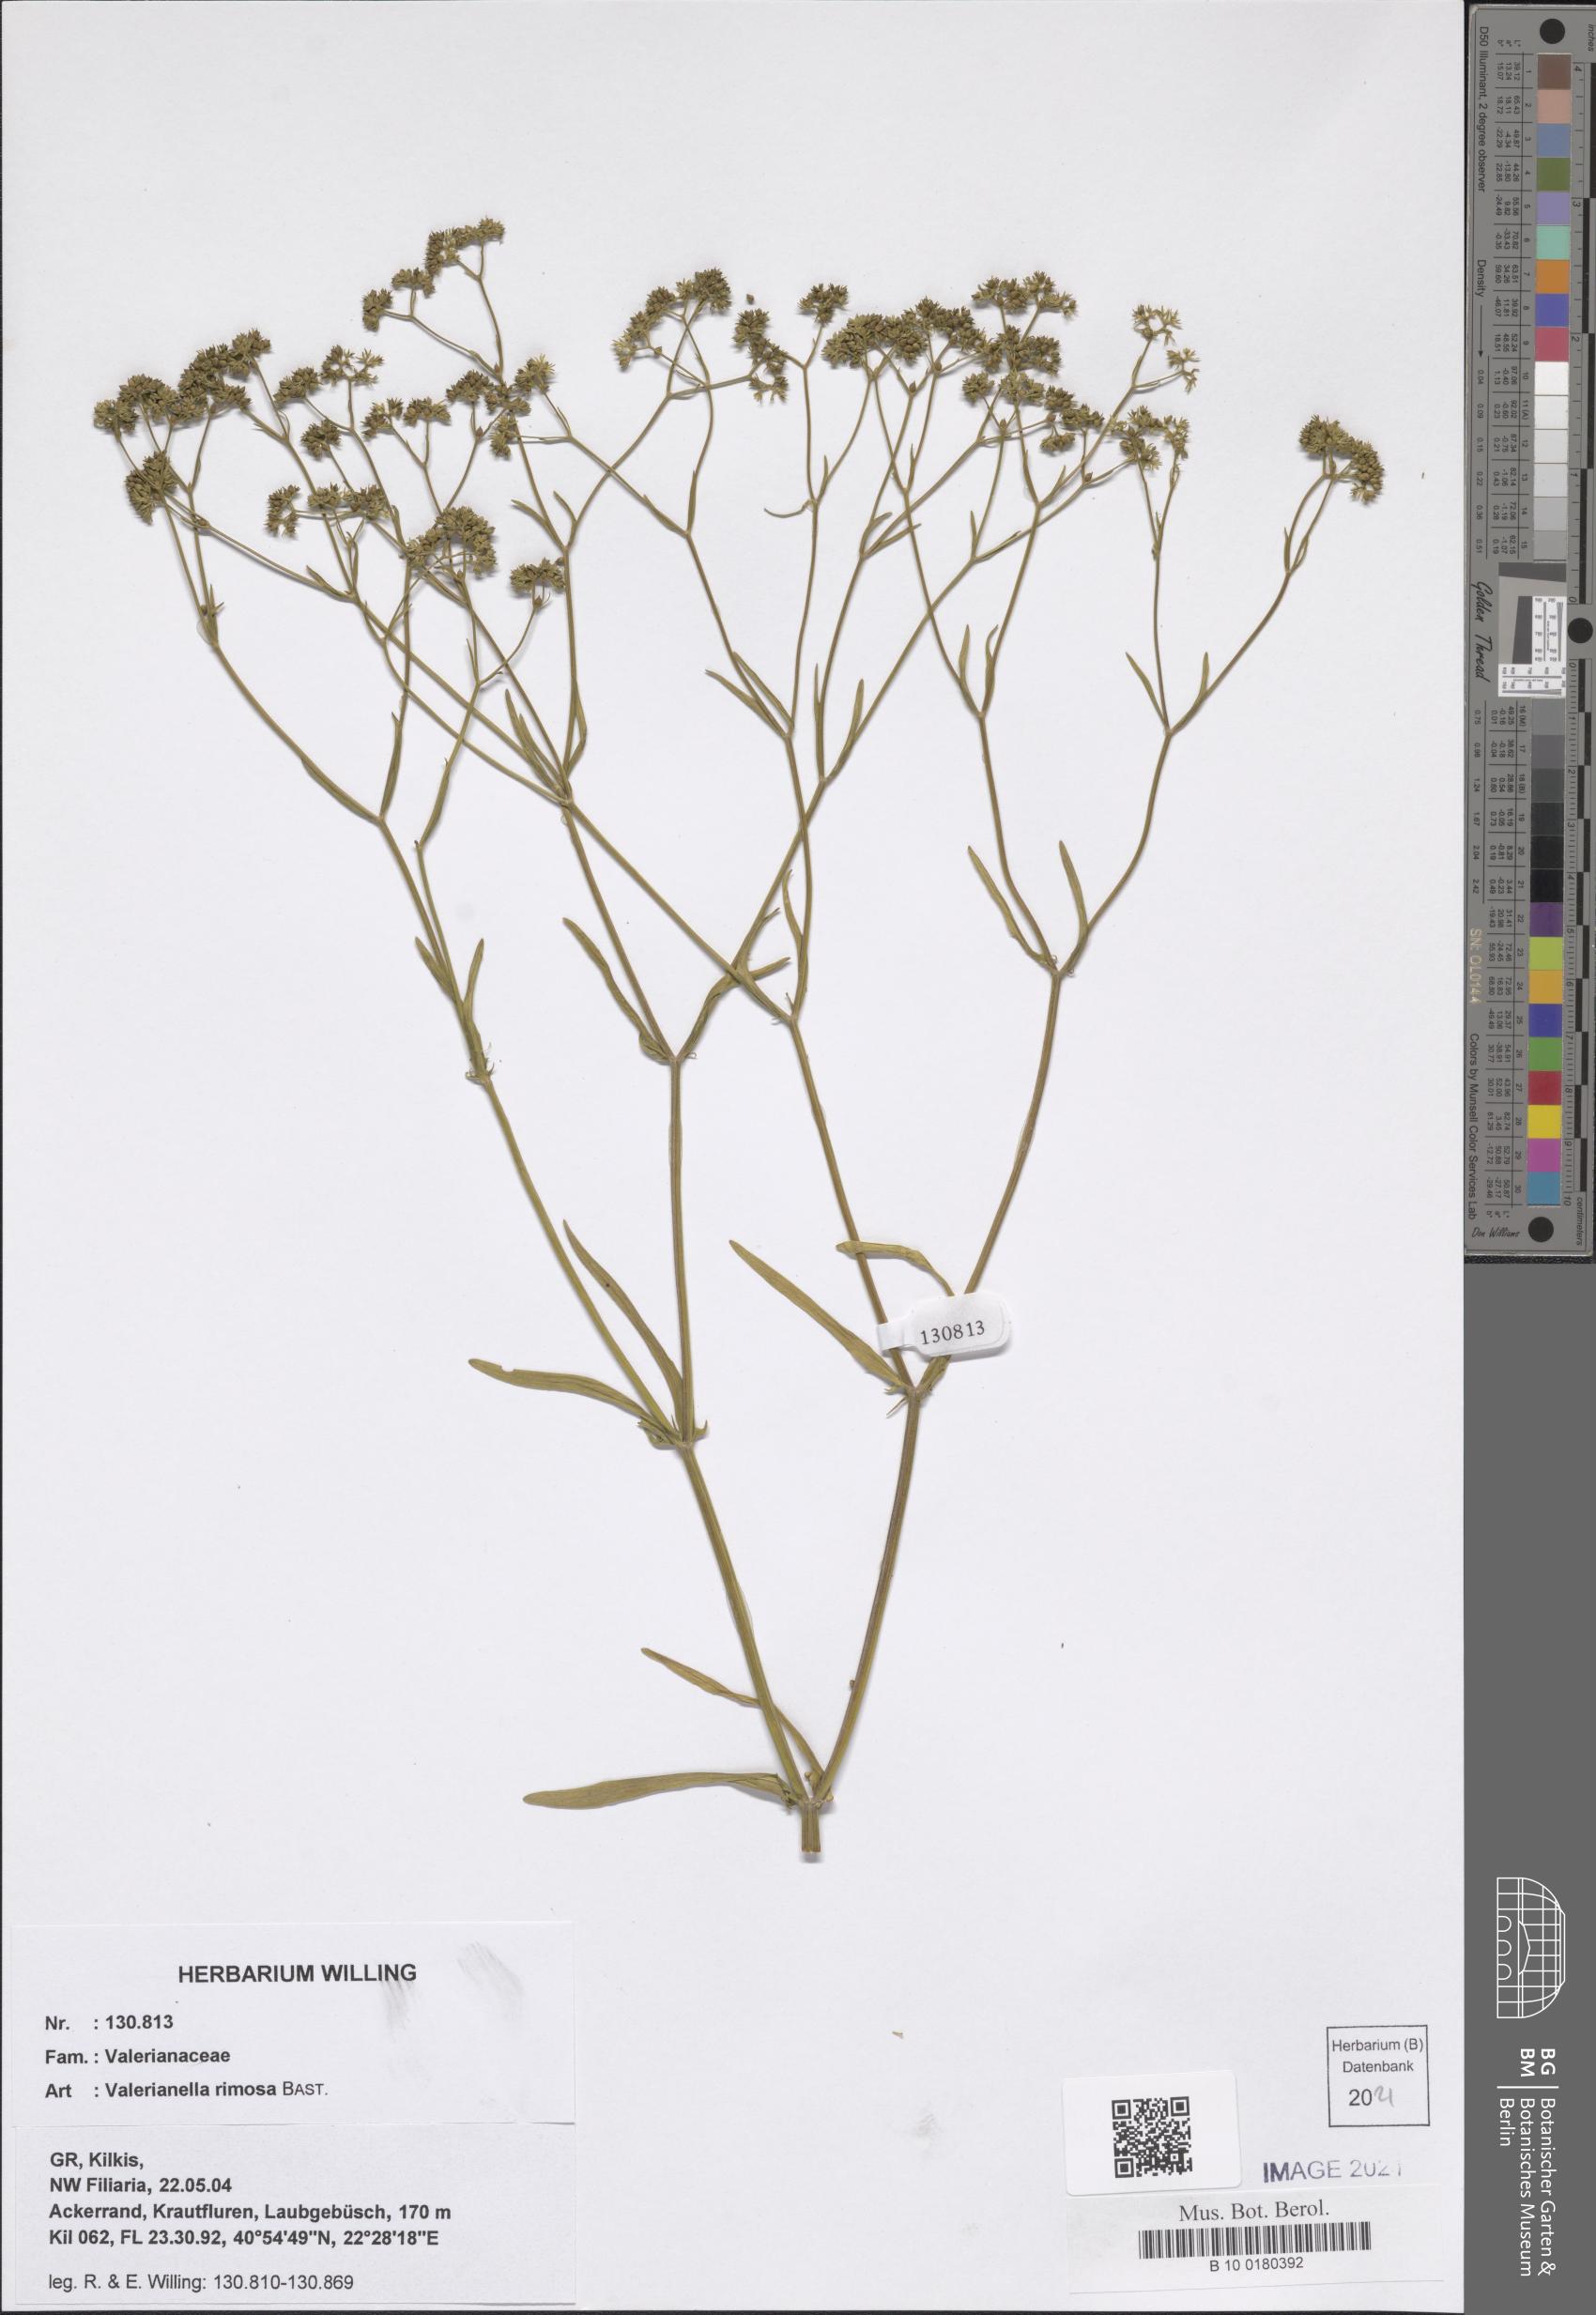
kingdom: Plantae
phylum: Tracheophyta
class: Magnoliopsida
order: Dipsacales
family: Caprifoliaceae
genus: Valerianella
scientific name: Valerianella rimosa
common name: Broad-fruited cornsalad
